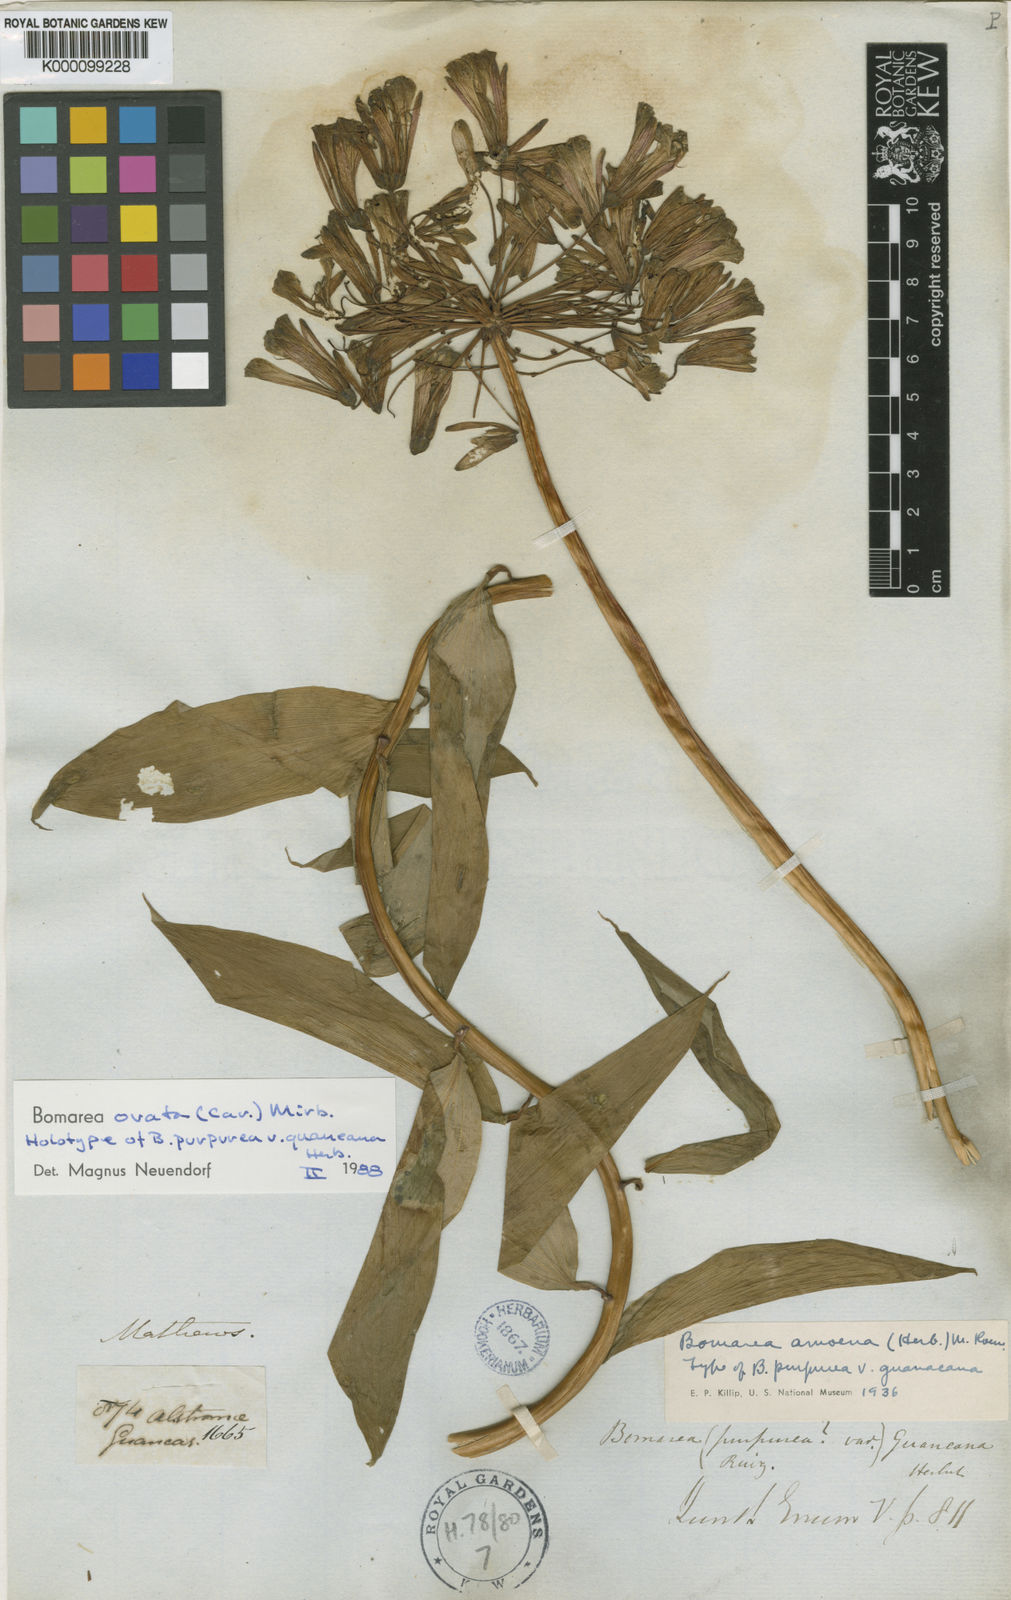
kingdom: Plantae
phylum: Tracheophyta
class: Liliopsida
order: Liliales
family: Alstroemeriaceae
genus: Bomarea
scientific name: Bomarea ovata
